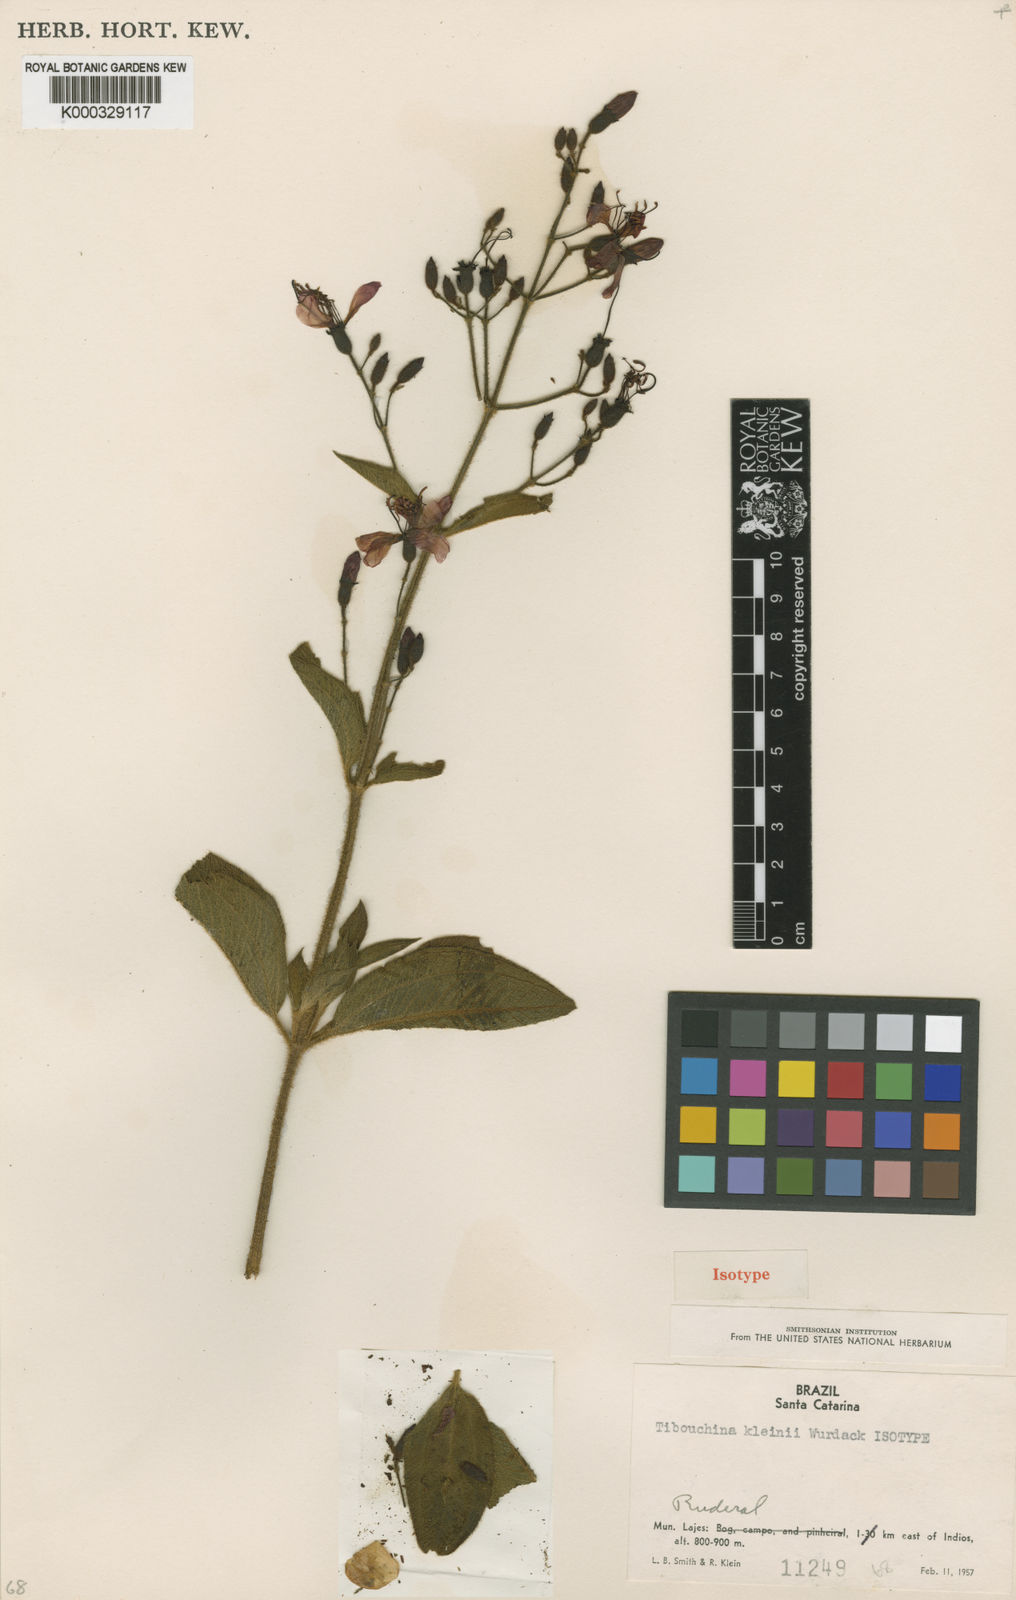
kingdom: Plantae
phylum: Tracheophyta
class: Magnoliopsida
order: Myrtales
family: Melastomataceae
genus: Pleroma
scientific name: Pleroma kleinii
